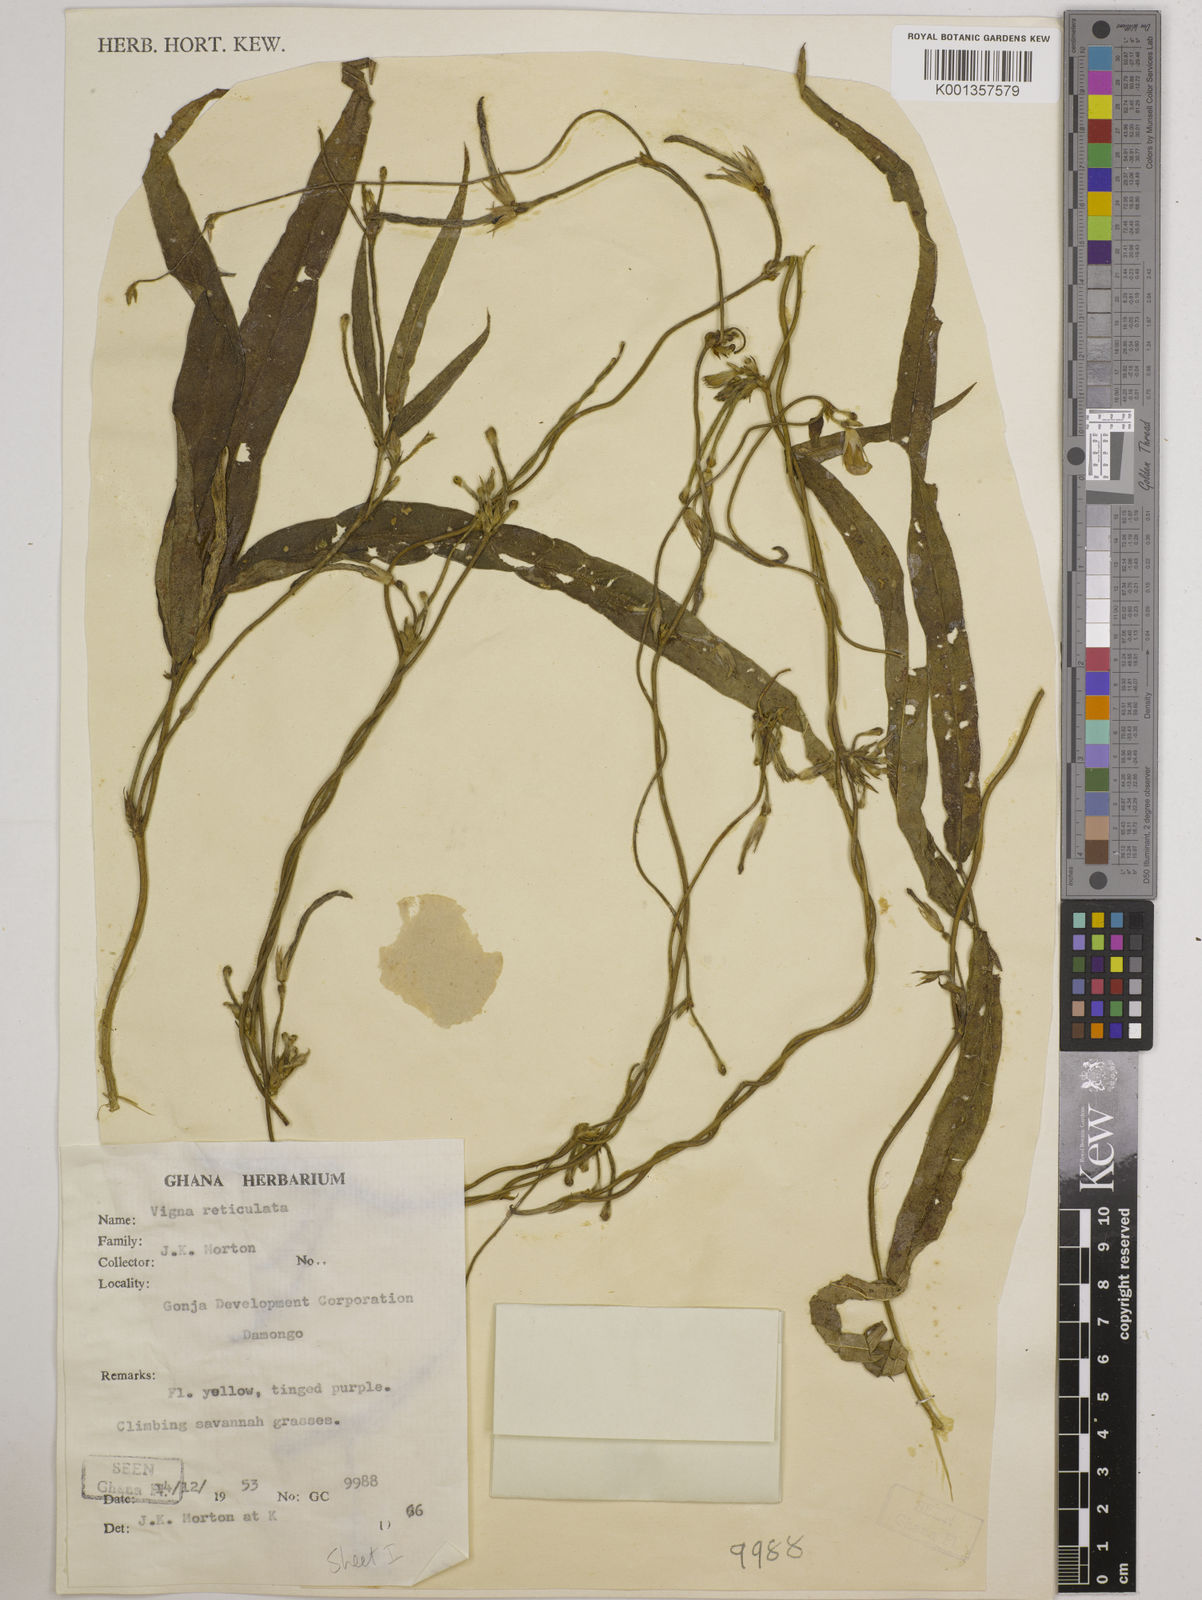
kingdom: Plantae
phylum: Tracheophyta
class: Magnoliopsida
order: Fabales
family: Fabaceae
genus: Vigna
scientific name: Vigna reticulata
